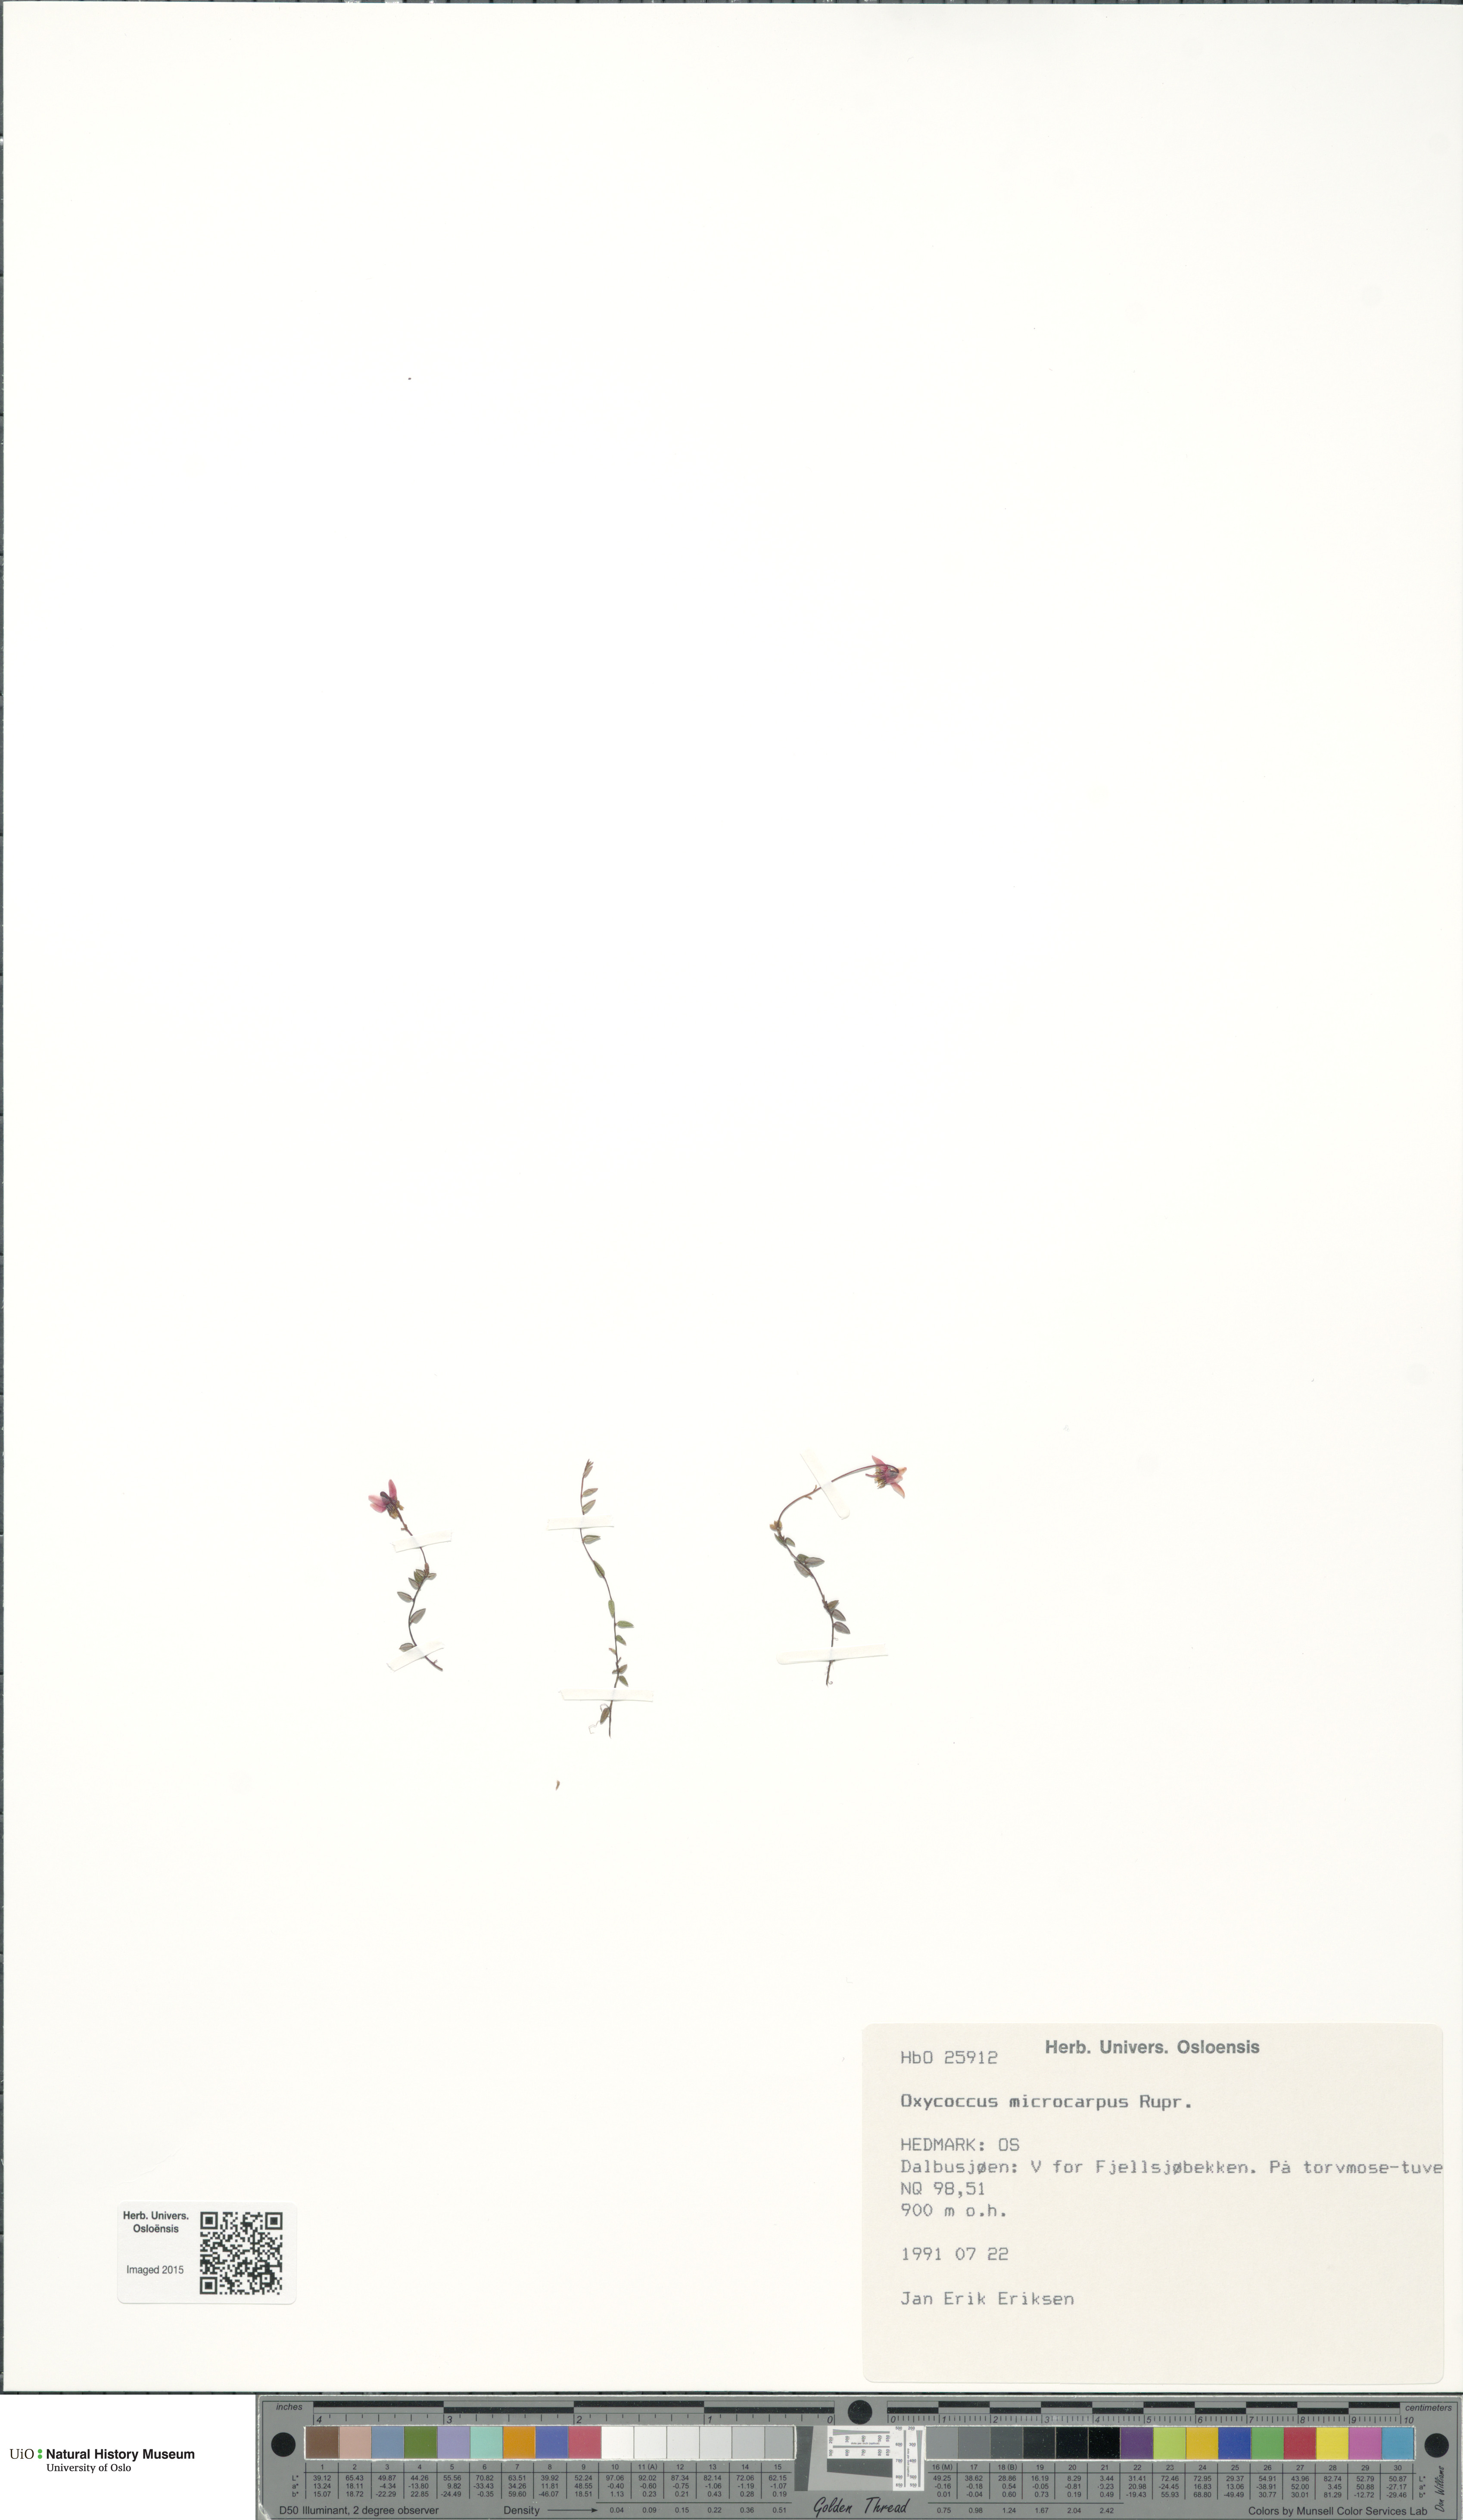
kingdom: Plantae
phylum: Tracheophyta
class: Magnoliopsida
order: Ericales
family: Ericaceae
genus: Vaccinium
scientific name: Vaccinium microcarpum
